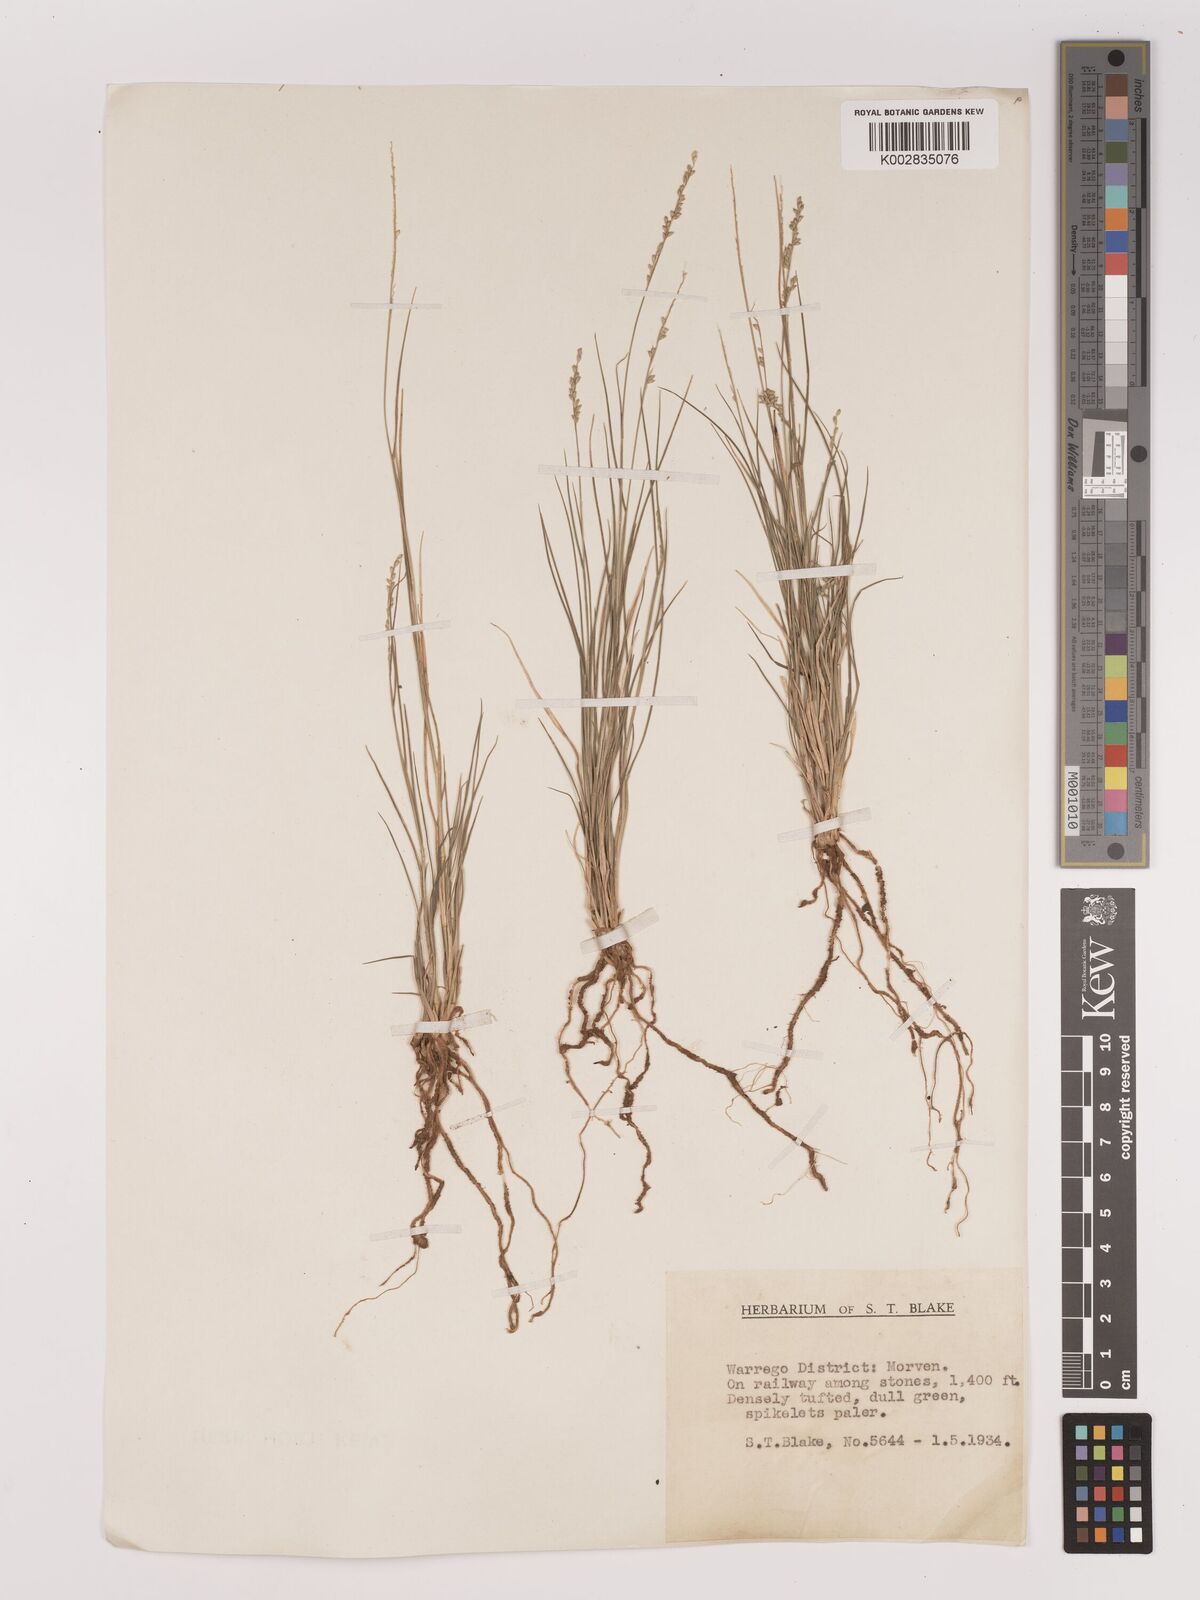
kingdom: Plantae
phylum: Tracheophyta
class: Liliopsida
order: Poales
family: Poaceae
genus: Setaria
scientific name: Setaria
